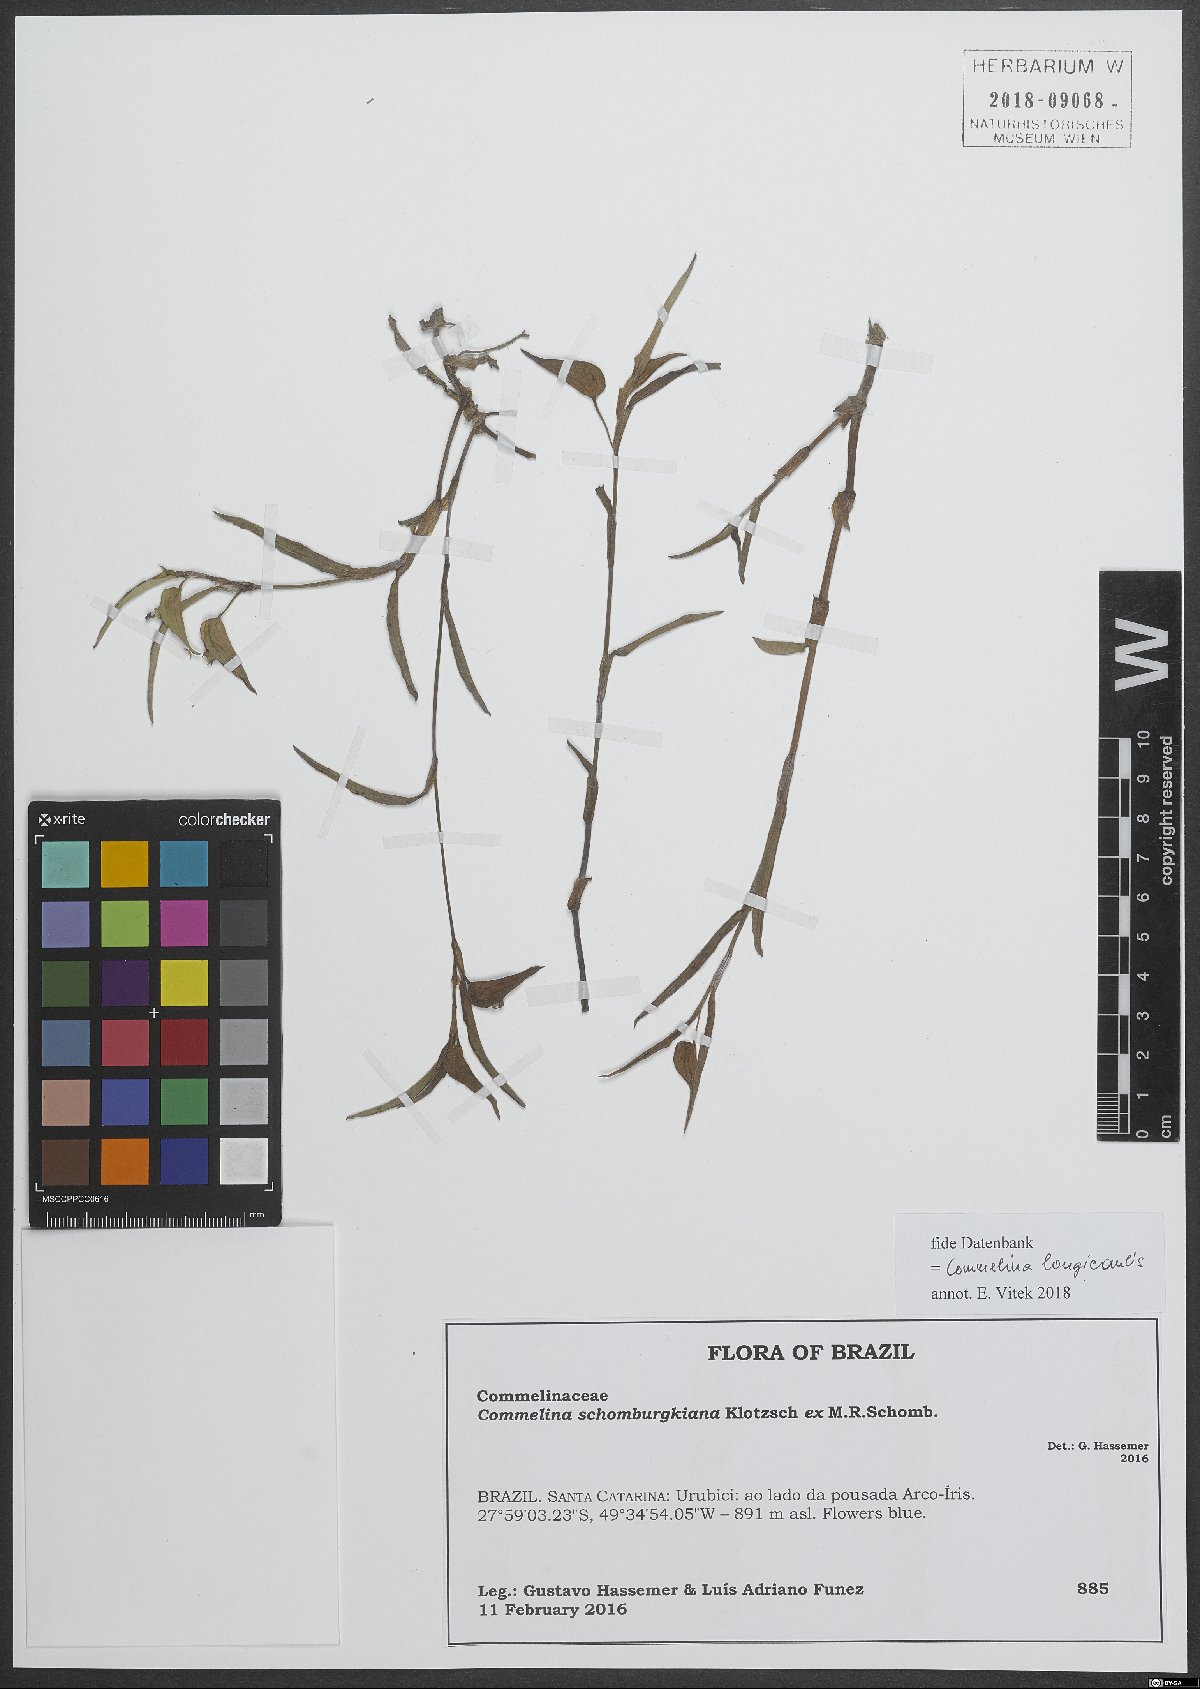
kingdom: Plantae
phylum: Tracheophyta
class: Liliopsida
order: Commelinales
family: Commelinaceae
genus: Commelina
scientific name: Commelina longicaulis
